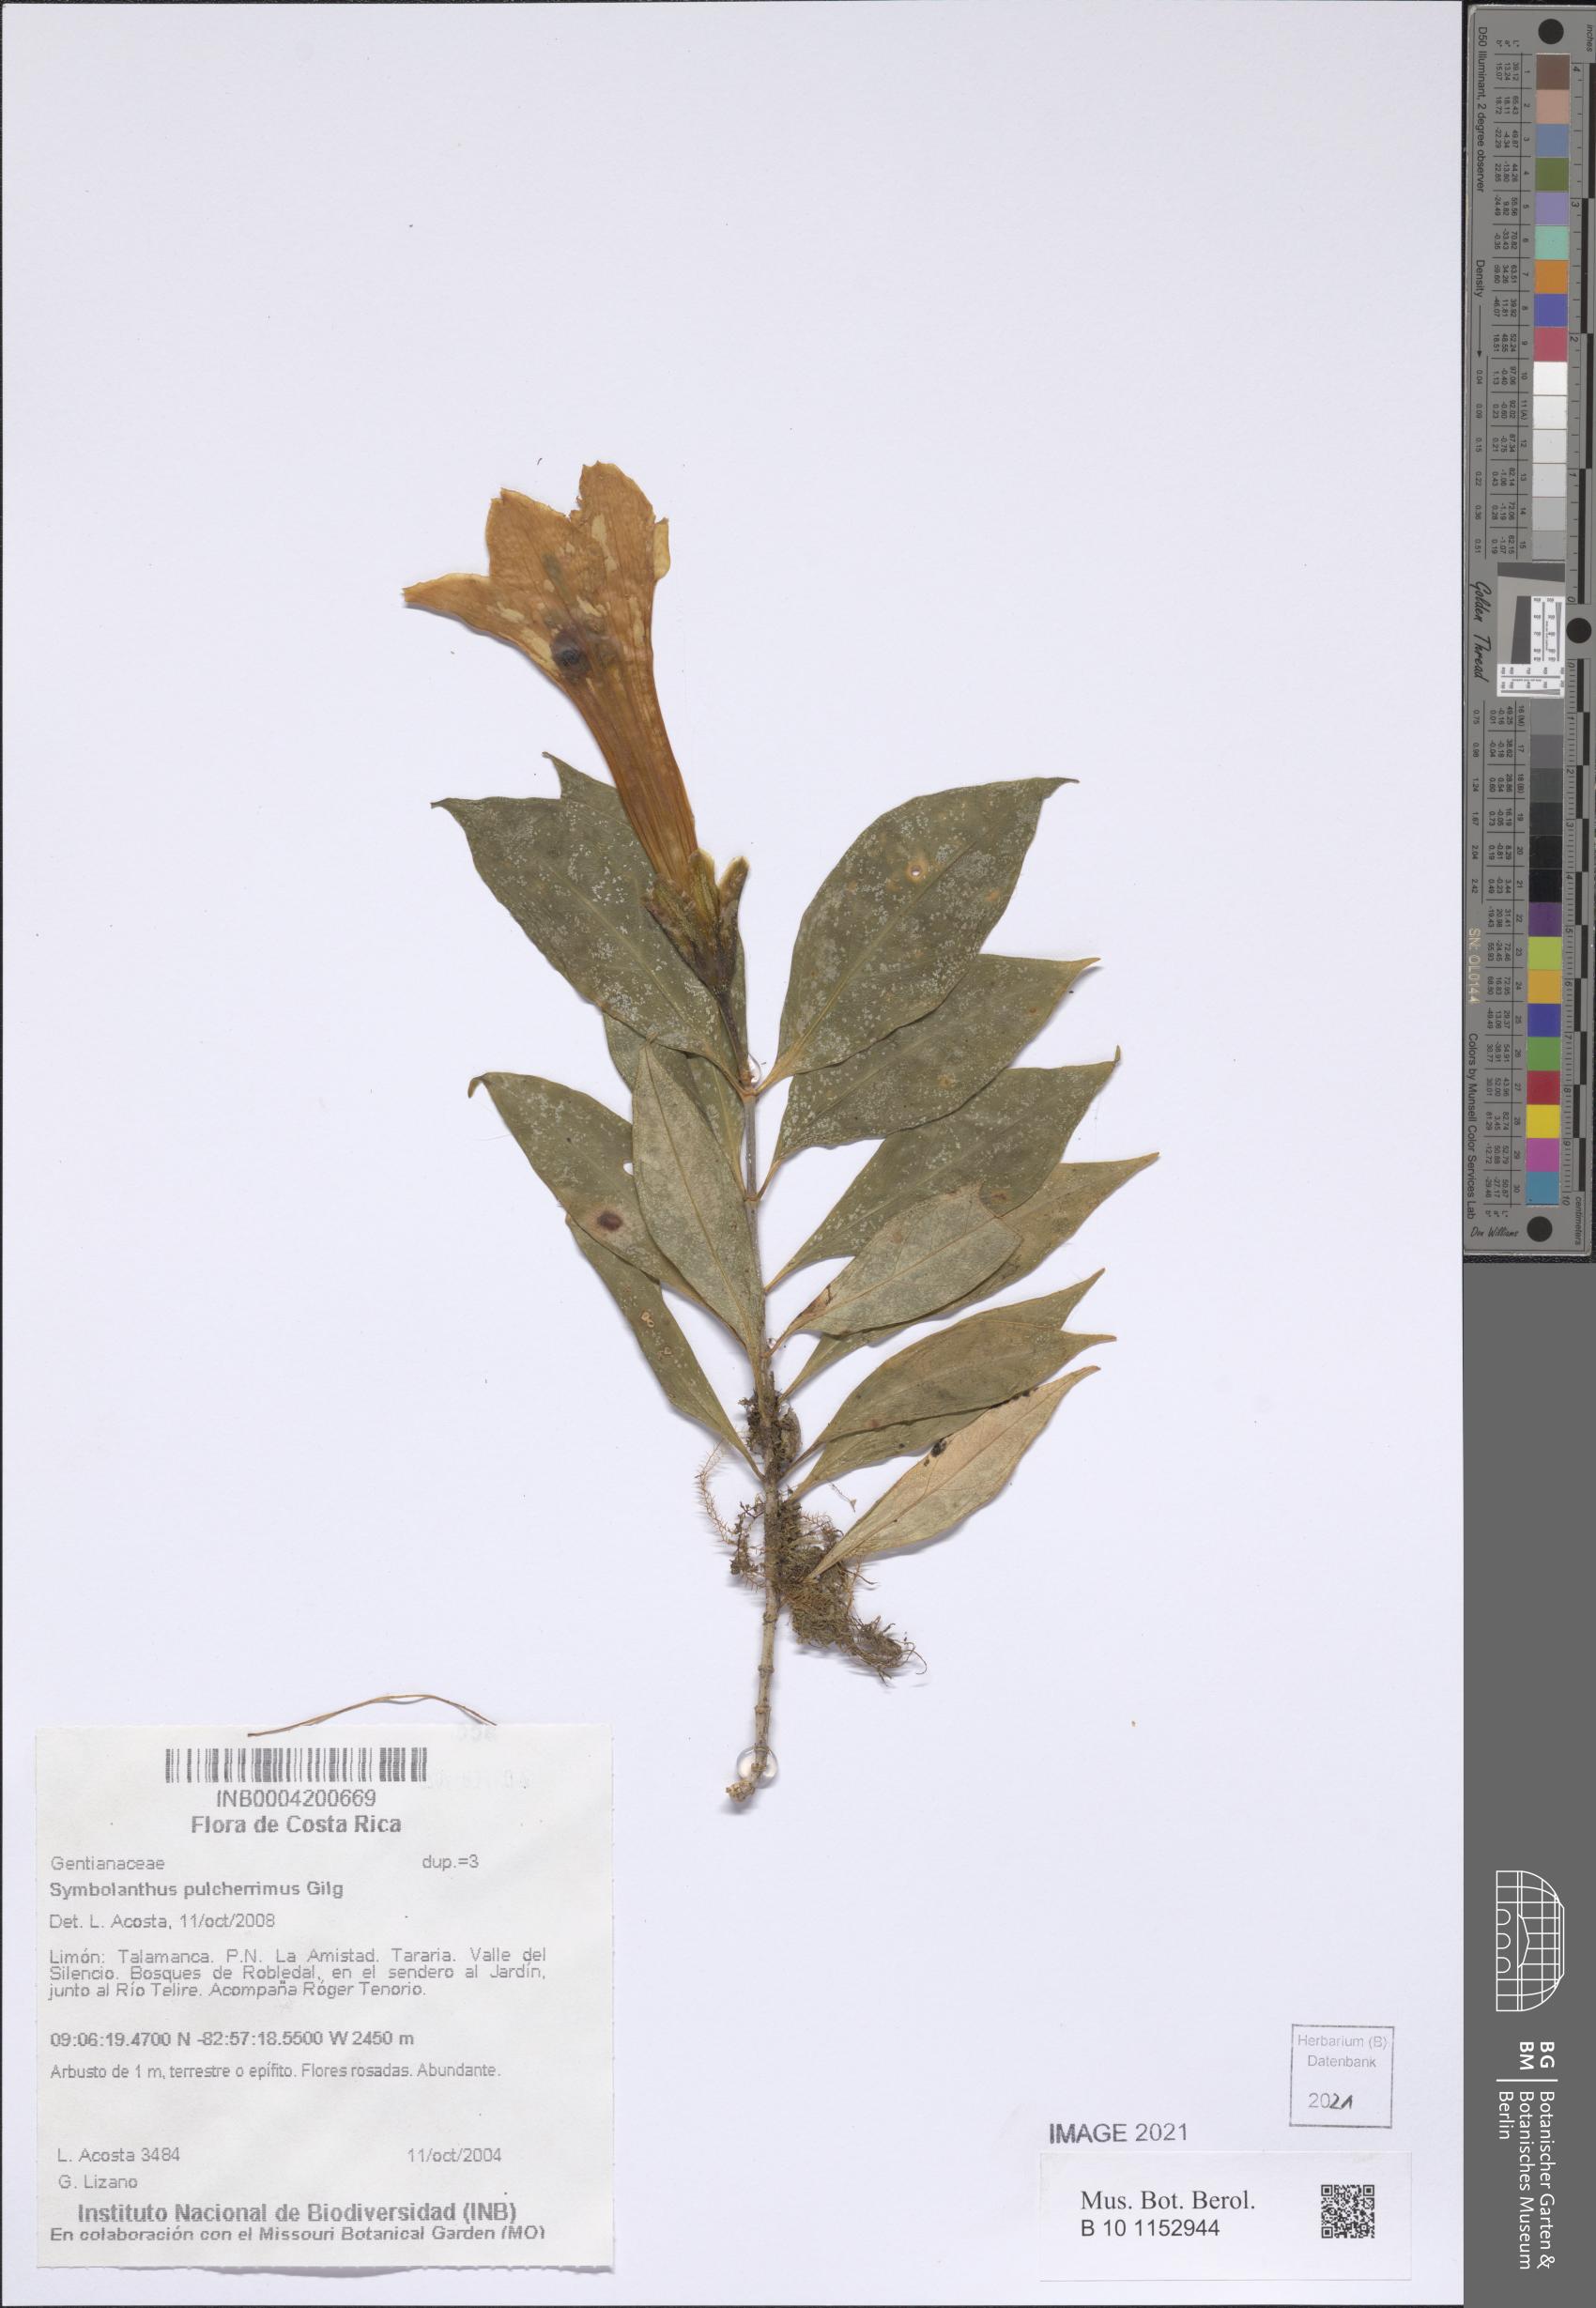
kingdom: Plantae
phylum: Tracheophyta
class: Magnoliopsida
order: Gentianales
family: Gentianaceae
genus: Symbolanthus
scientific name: Symbolanthus pulcherrimus
